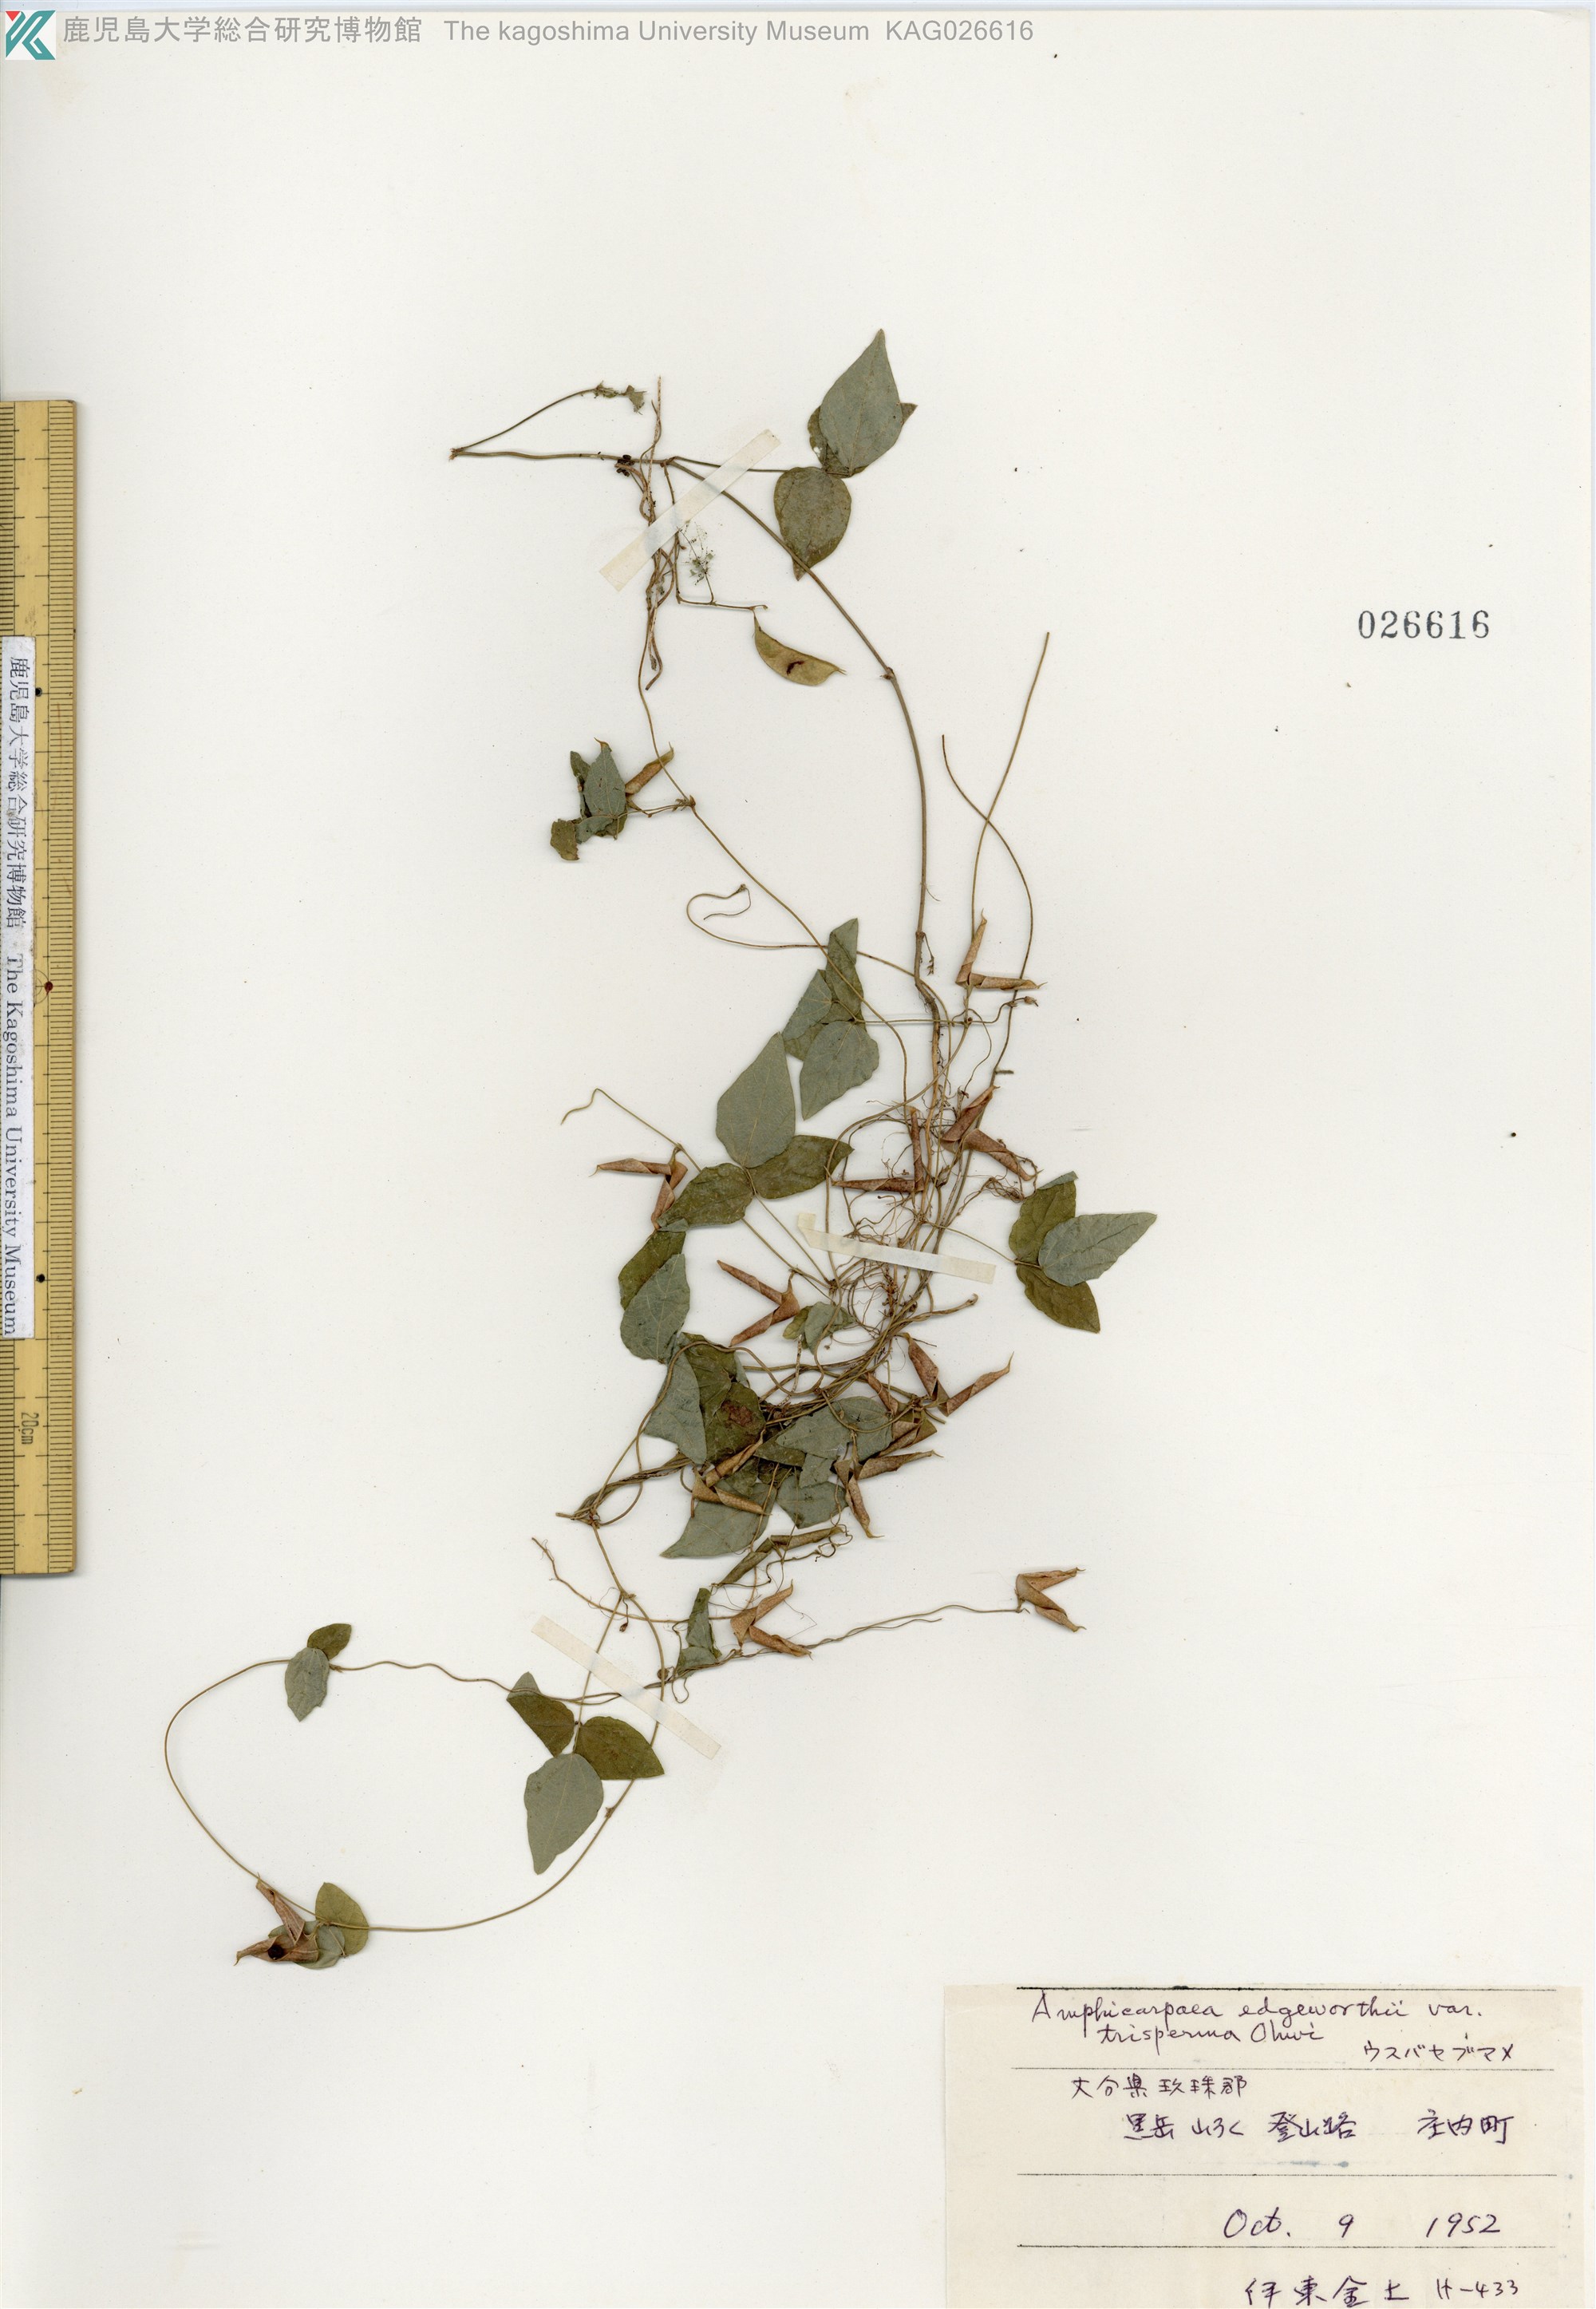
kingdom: Plantae
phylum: Tracheophyta
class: Magnoliopsida
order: Fabales
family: Fabaceae
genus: Amphicarpaea
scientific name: Amphicarpaea edgeworthii
